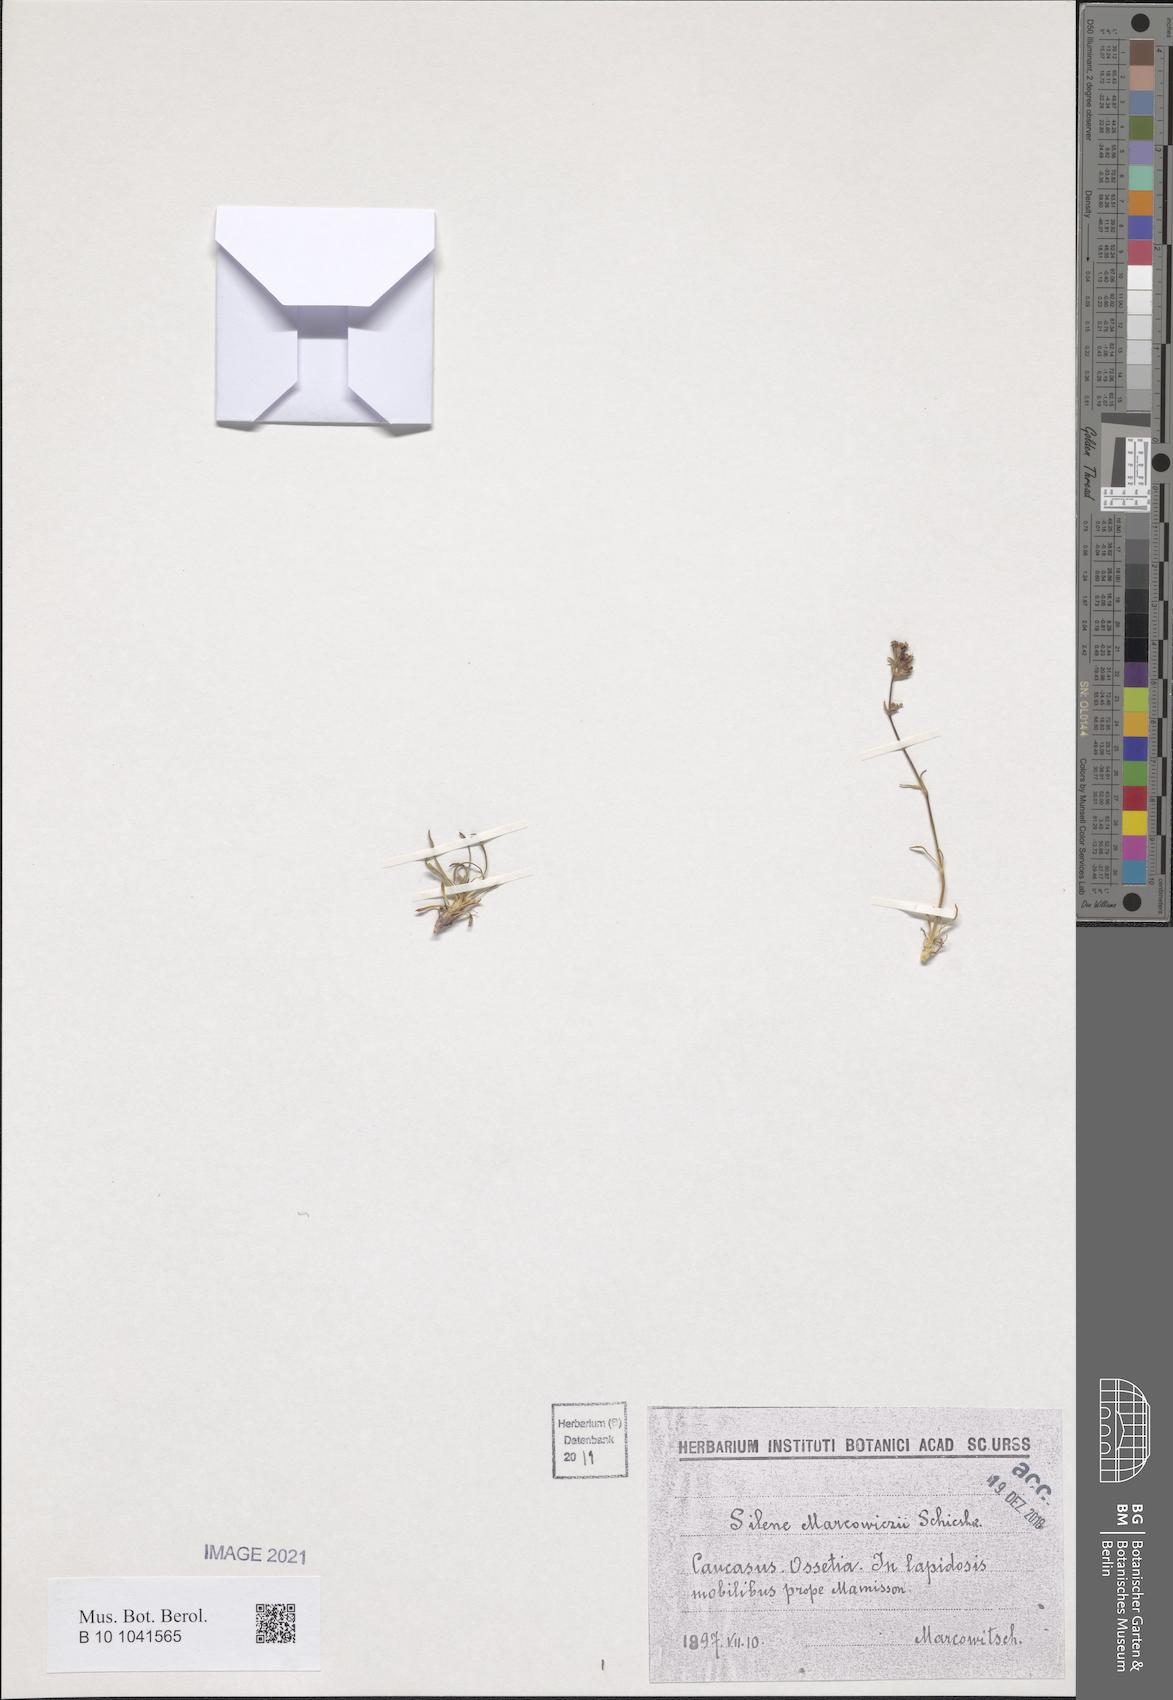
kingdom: Plantae
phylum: Tracheophyta
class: Magnoliopsida
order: Caryophyllales
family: Caryophyllaceae
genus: Silene
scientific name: Silene marcowiczii
